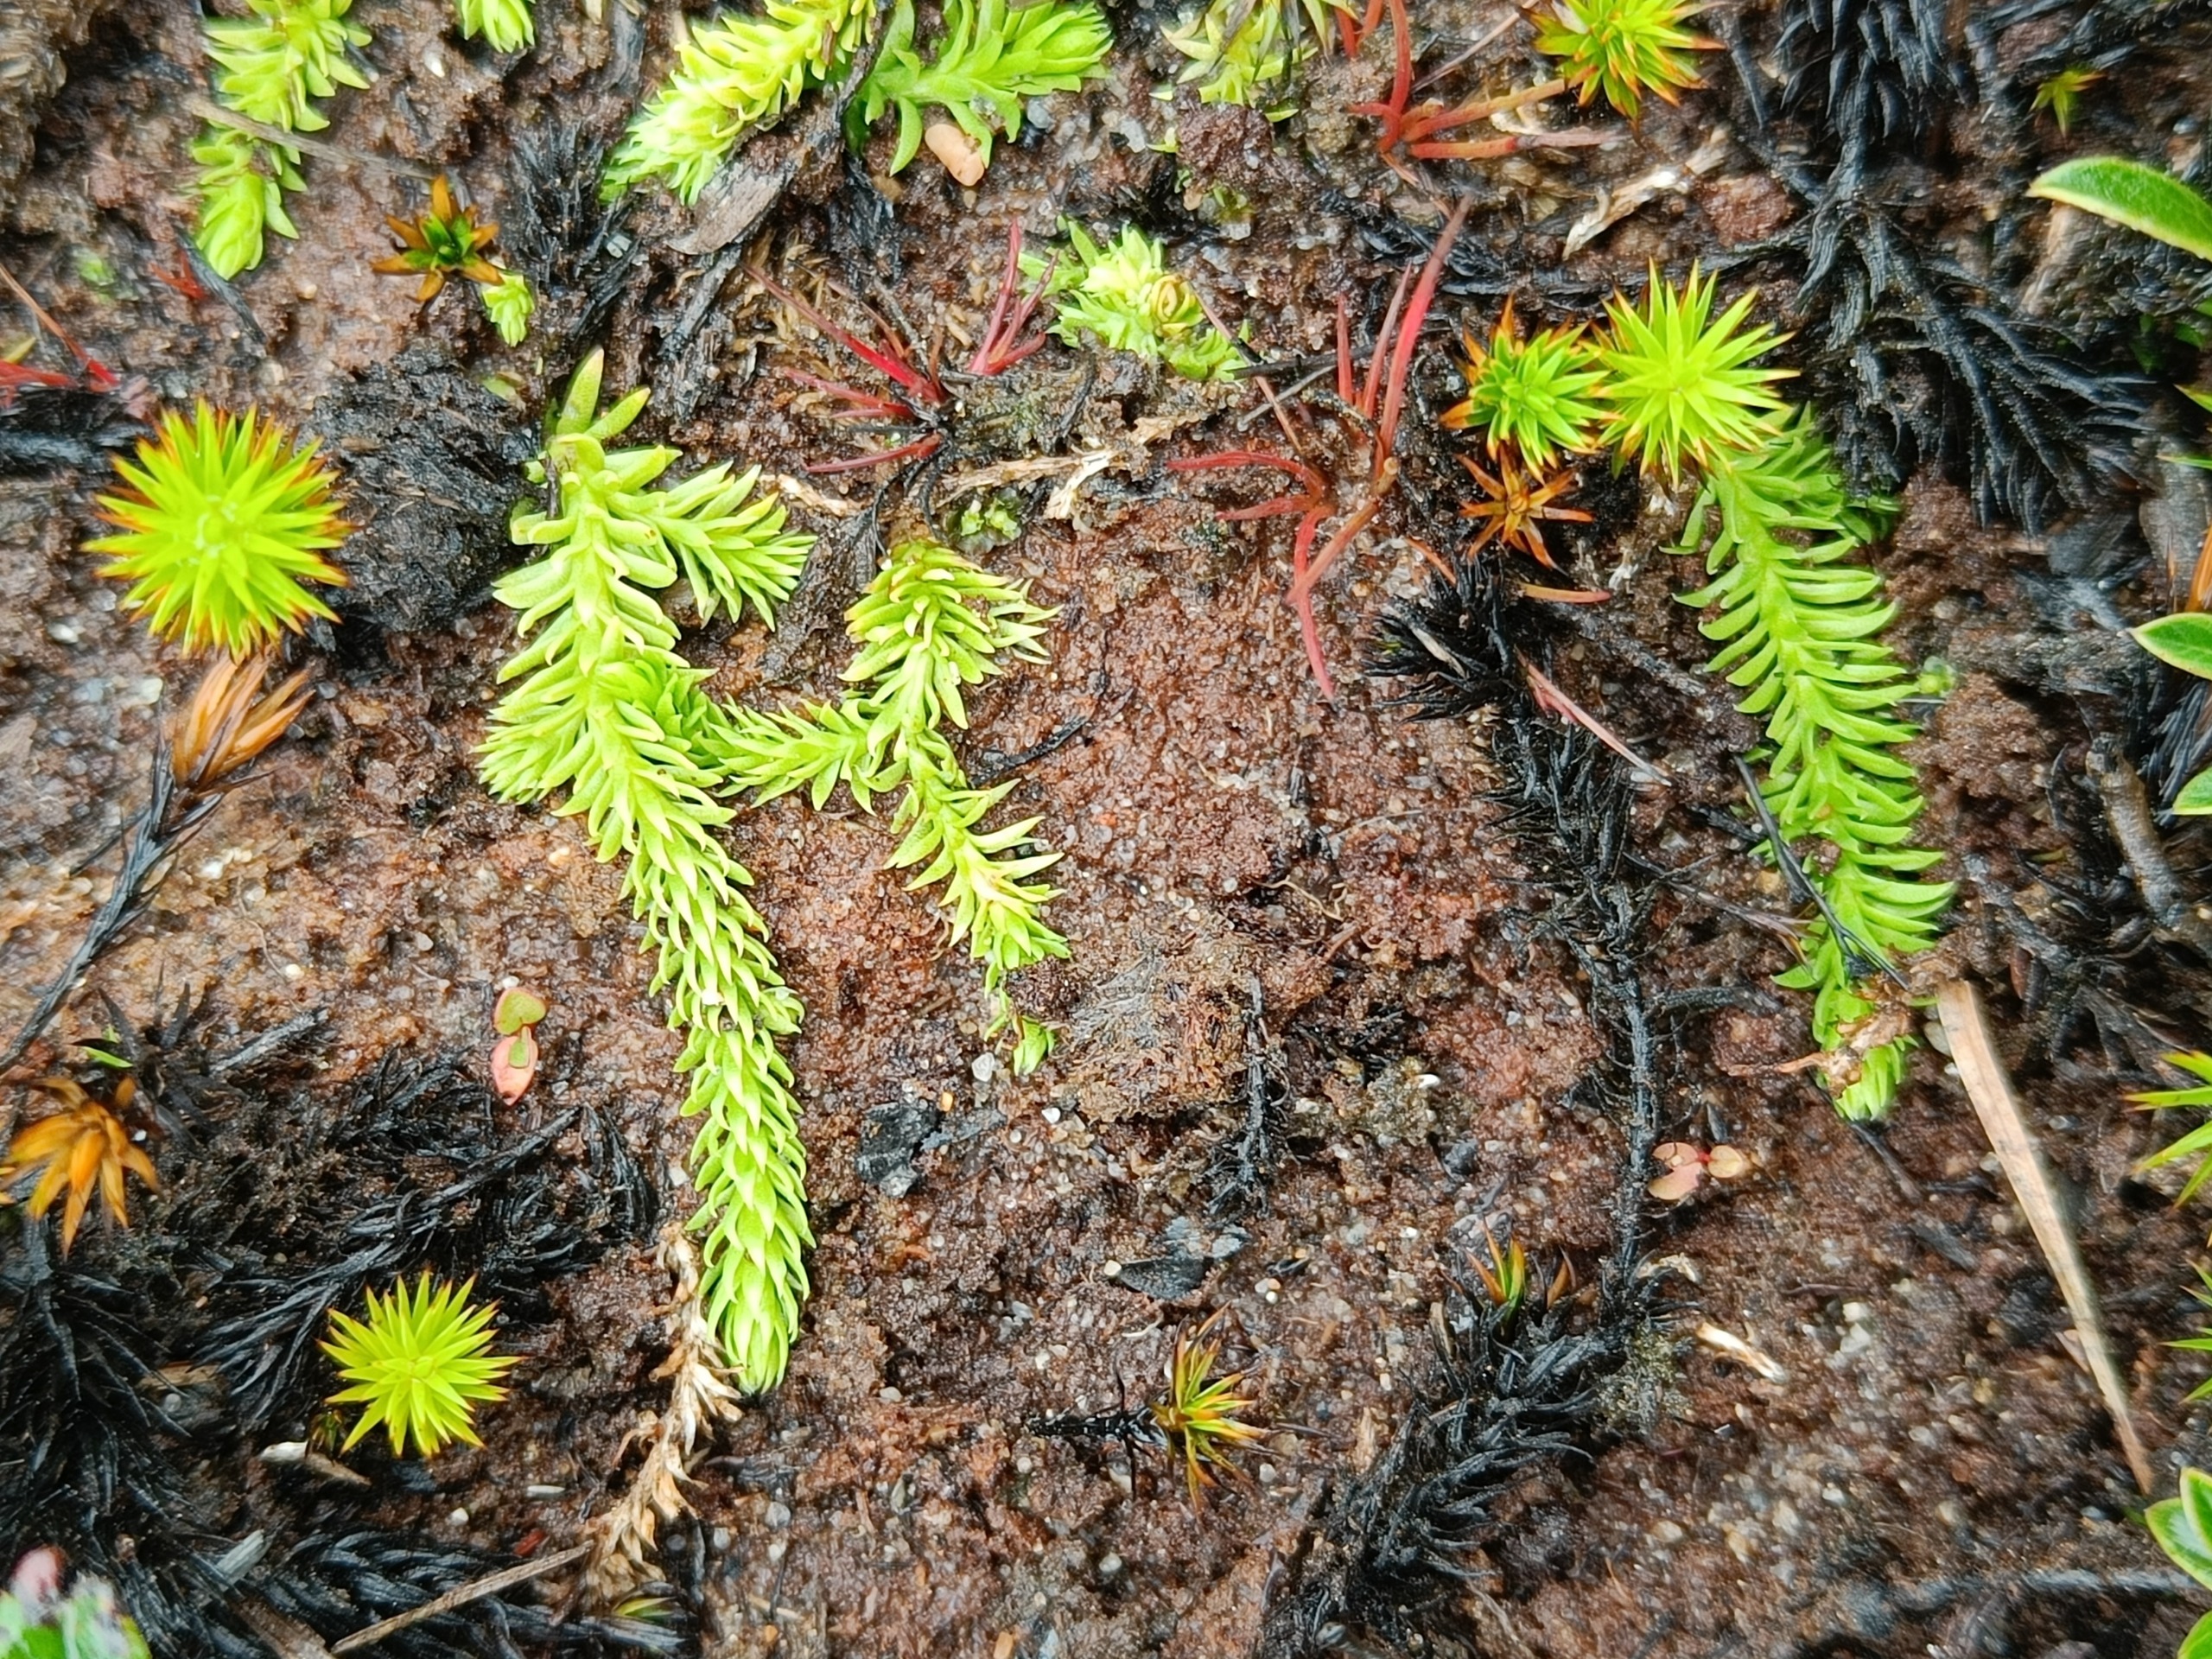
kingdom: Plantae
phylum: Tracheophyta
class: Lycopodiopsida
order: Lycopodiales
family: Lycopodiaceae
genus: Lycopodiella
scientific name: Lycopodiella inundata
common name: Liden ulvefod
